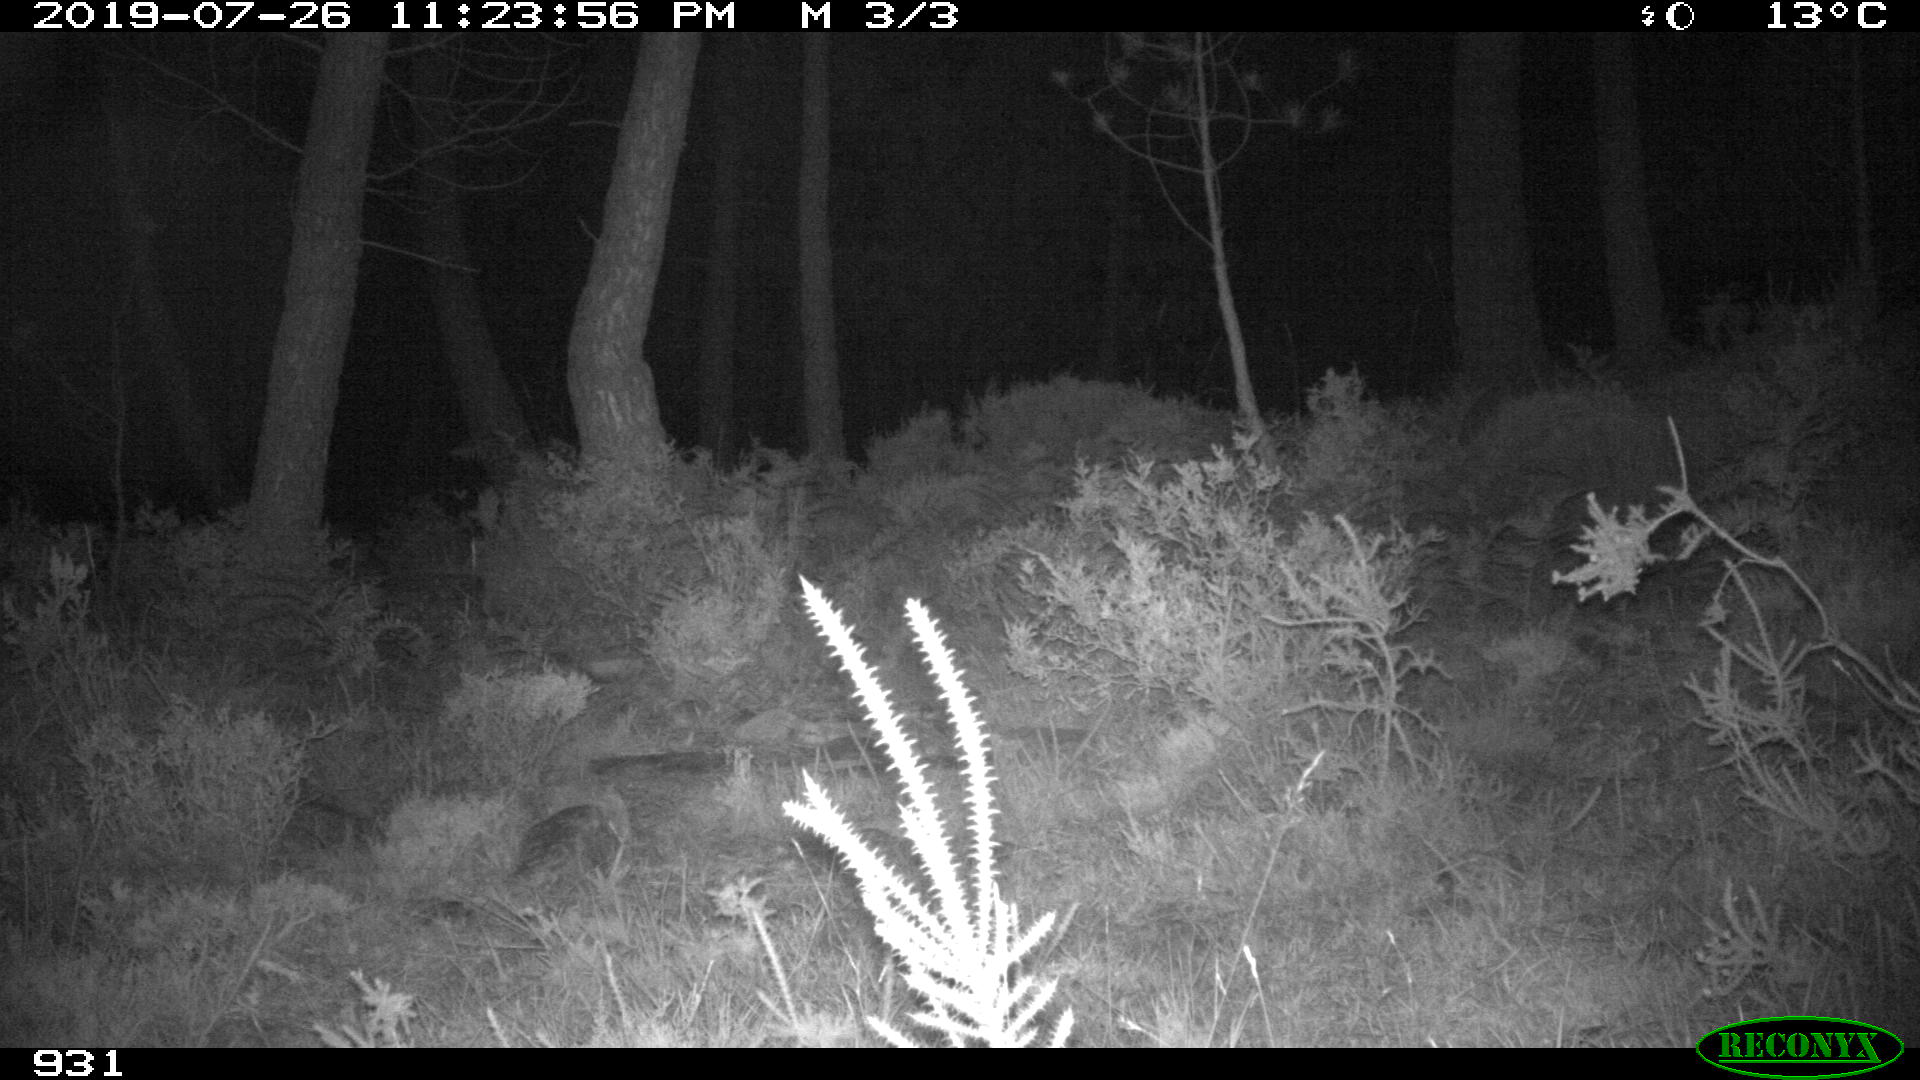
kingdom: Animalia
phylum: Chordata
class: Mammalia
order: Artiodactyla
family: Cervidae
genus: Capreolus
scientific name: Capreolus capreolus
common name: Western roe deer
